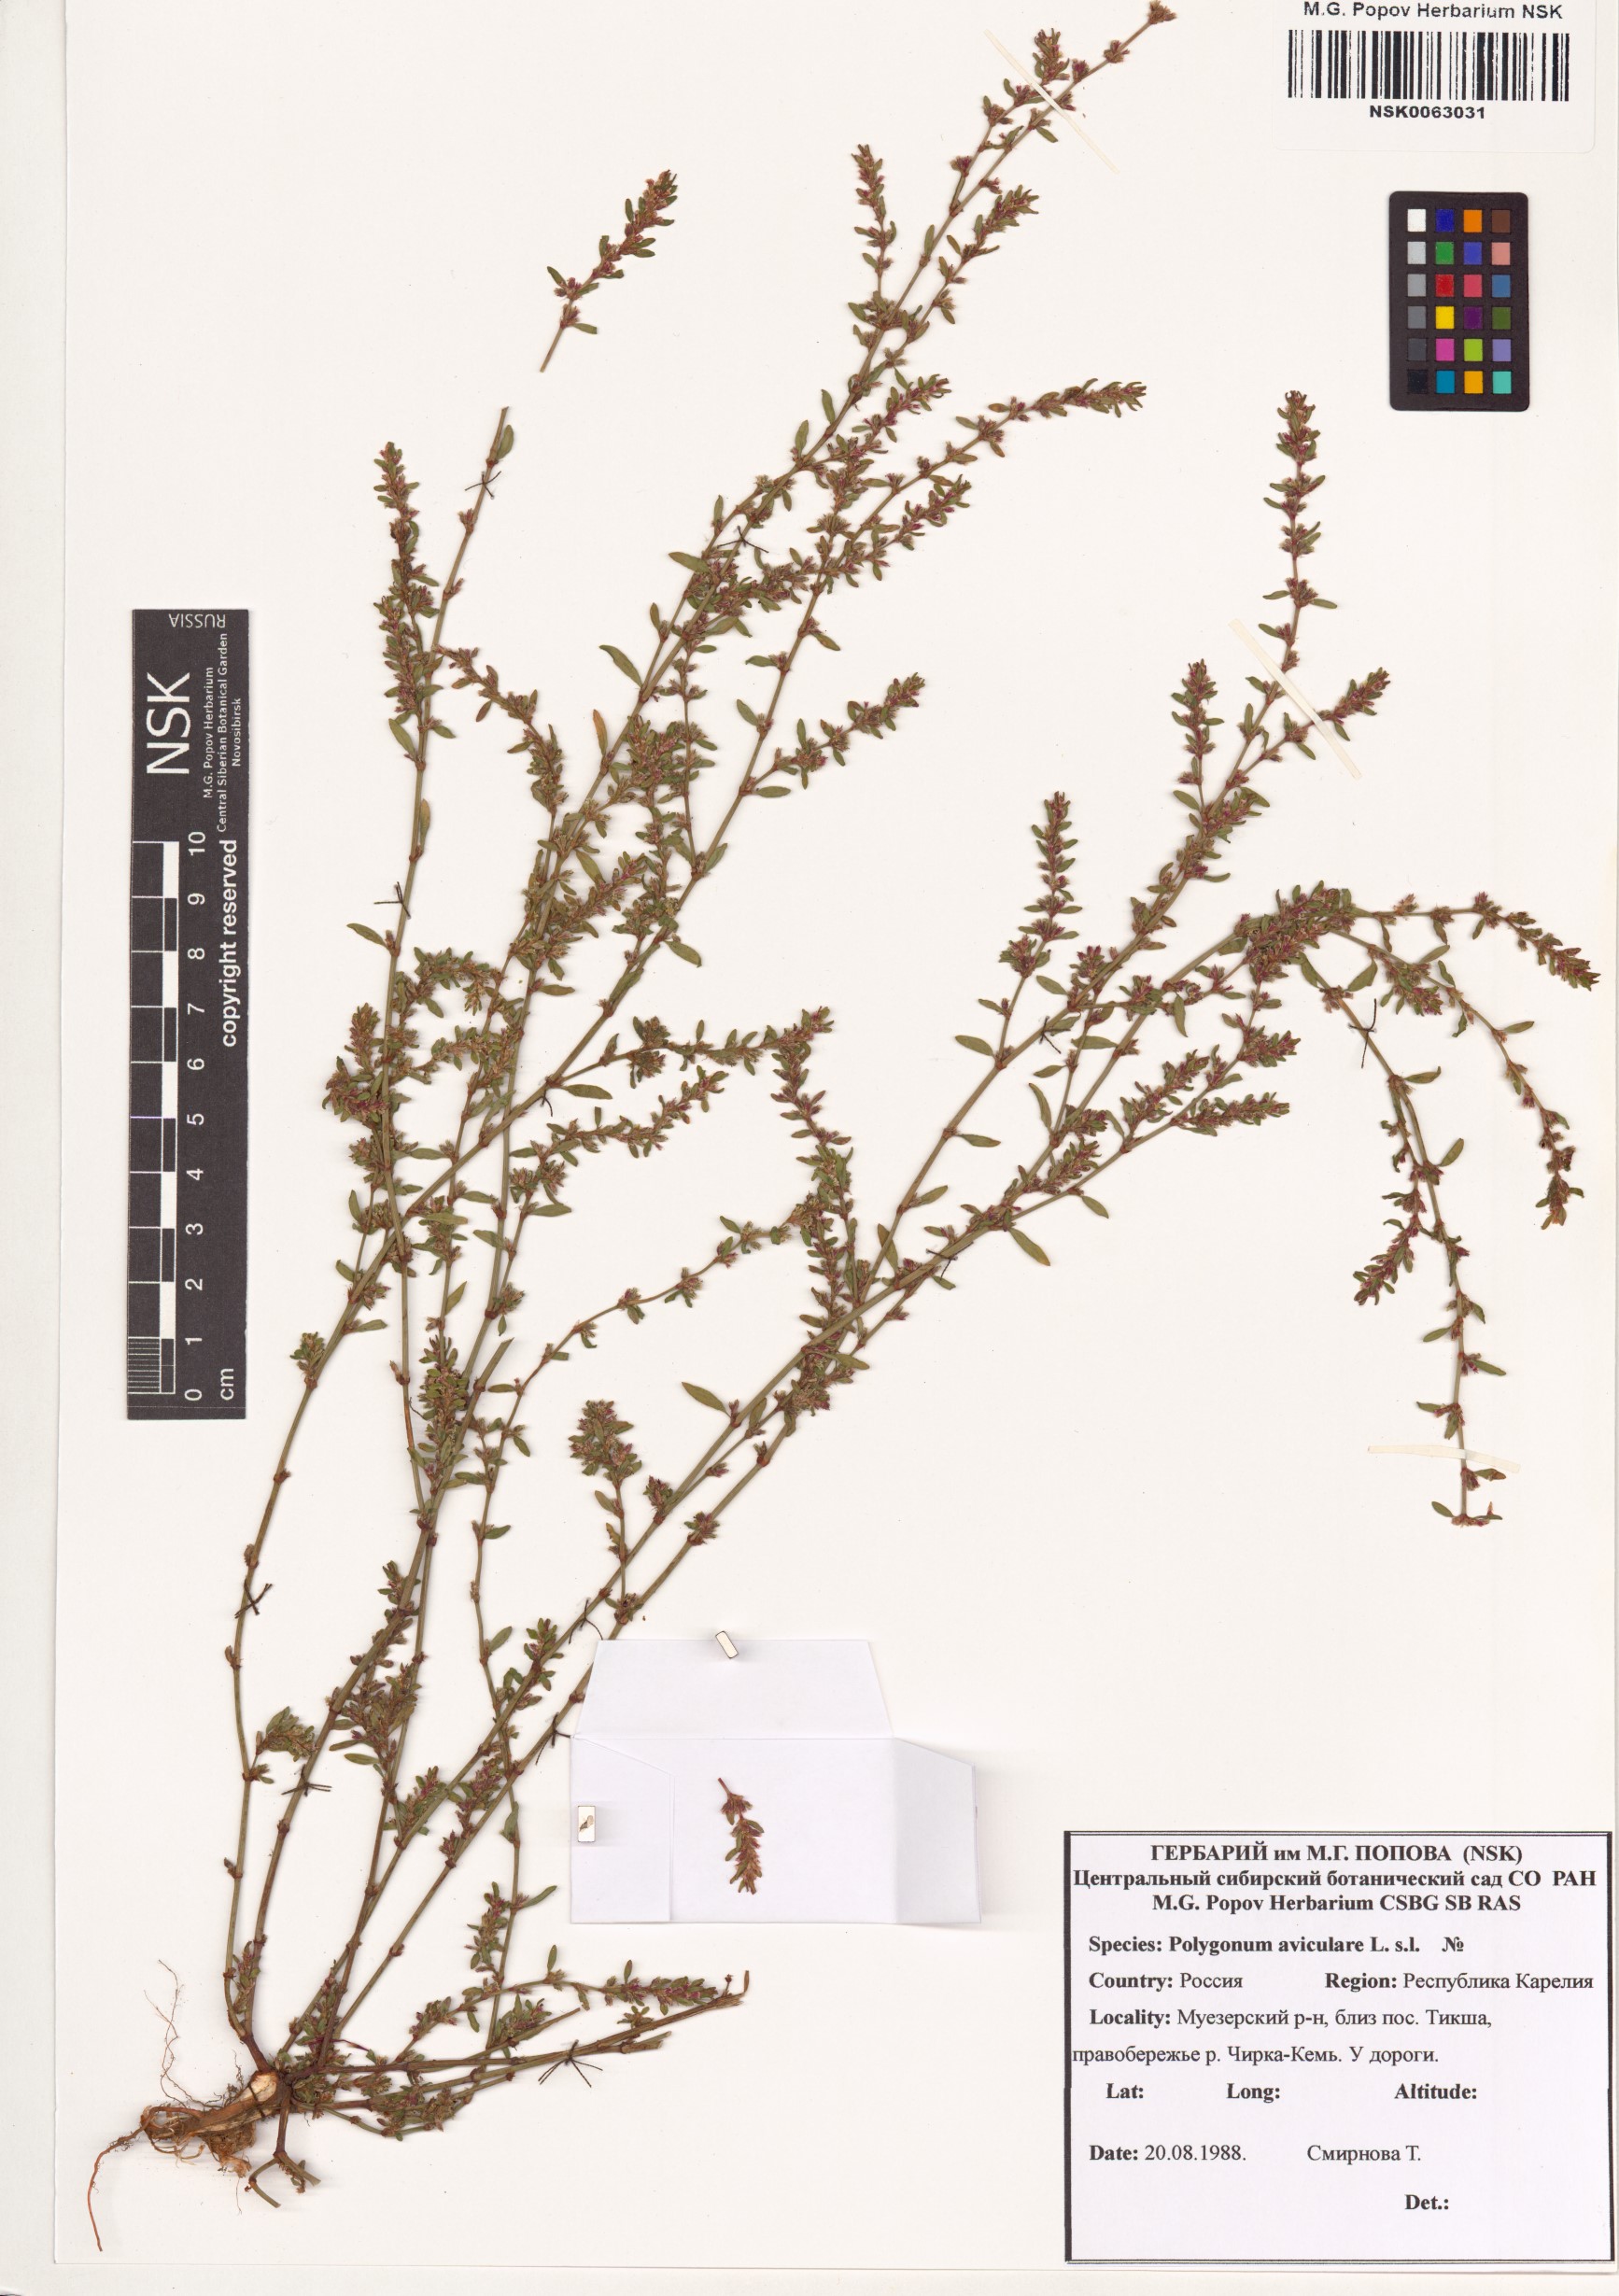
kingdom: Plantae
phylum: Tracheophyta
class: Magnoliopsida
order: Caryophyllales
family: Polygonaceae
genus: Polygonum
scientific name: Polygonum aviculare
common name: Prostrate knotweed
